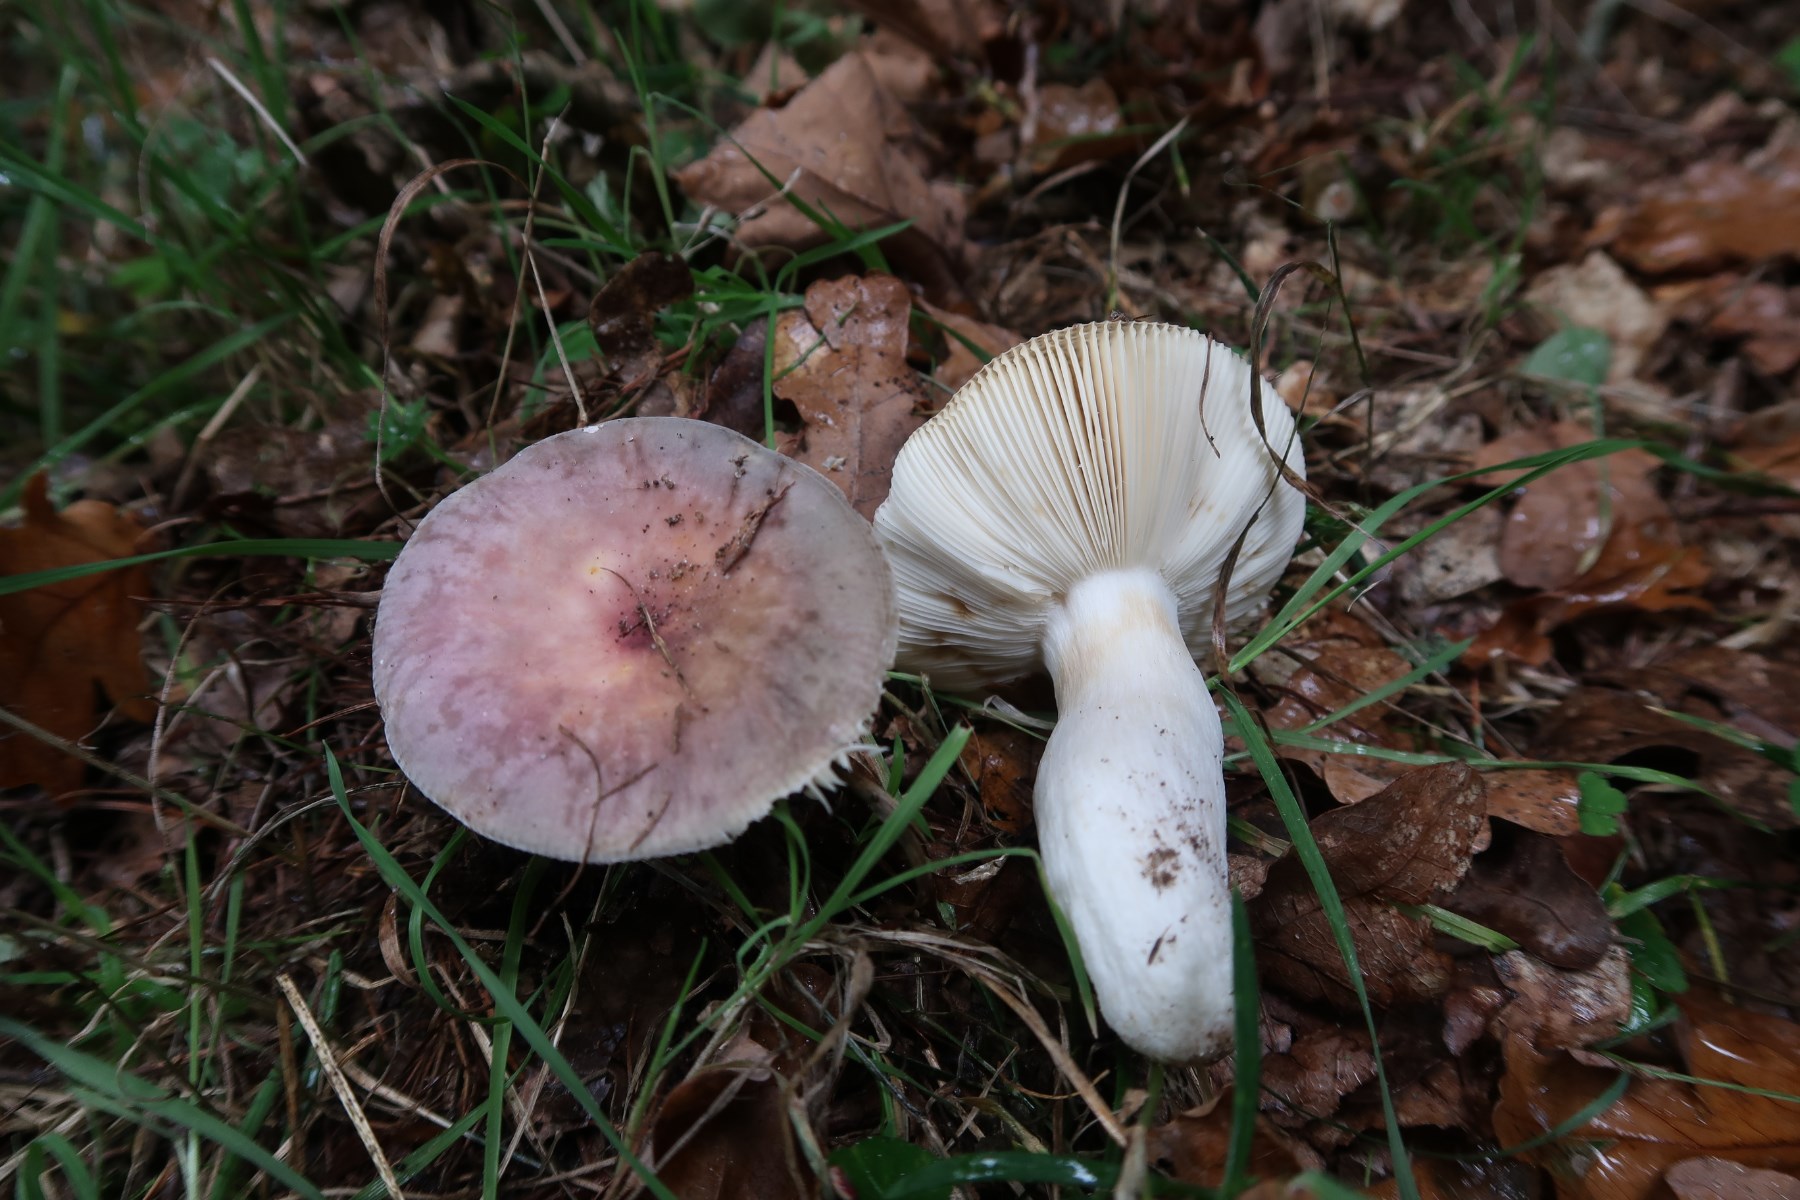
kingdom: Fungi
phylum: Basidiomycota
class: Agaricomycetes
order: Russulales
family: Russulaceae
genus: Russula
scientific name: Russula ionochlora
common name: violetgrøn skørhat
